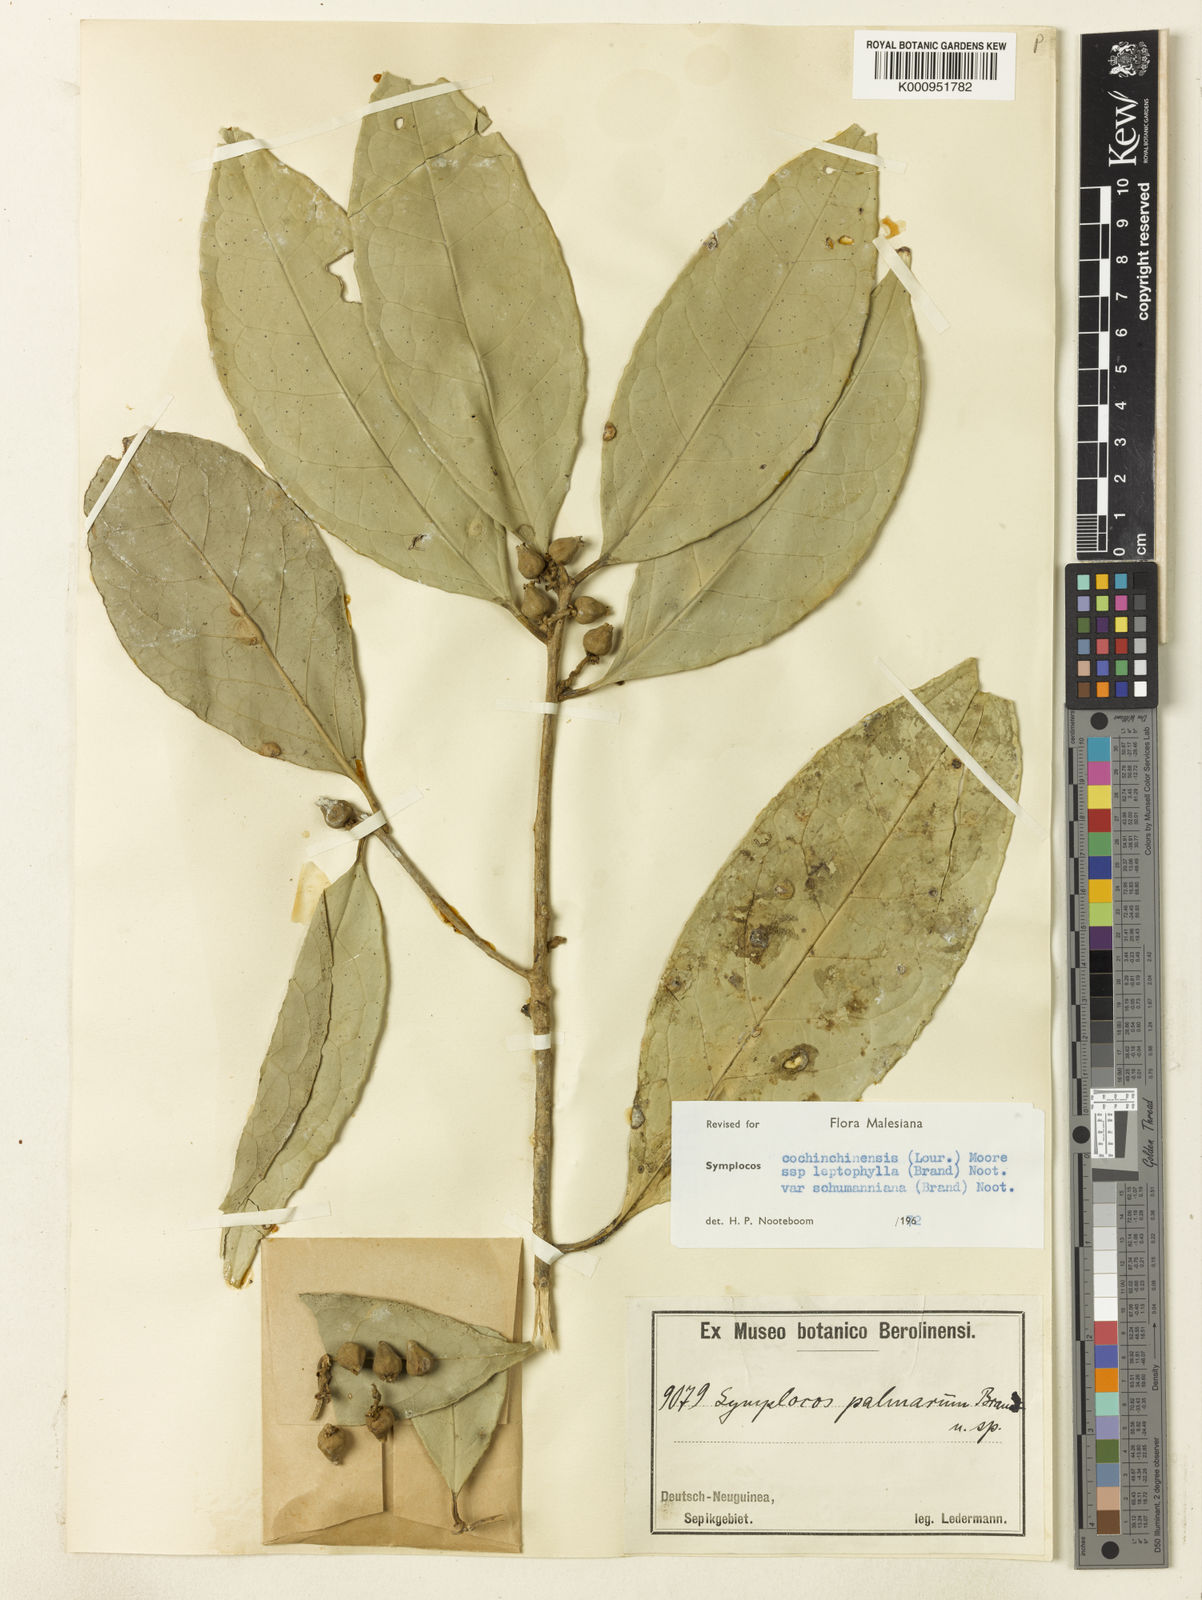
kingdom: Plantae
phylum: Tracheophyta
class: Magnoliopsida
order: Ericales
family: Symplocaceae
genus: Symplocos
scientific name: Symplocos cochinchinensis
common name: Buff hazelwood
